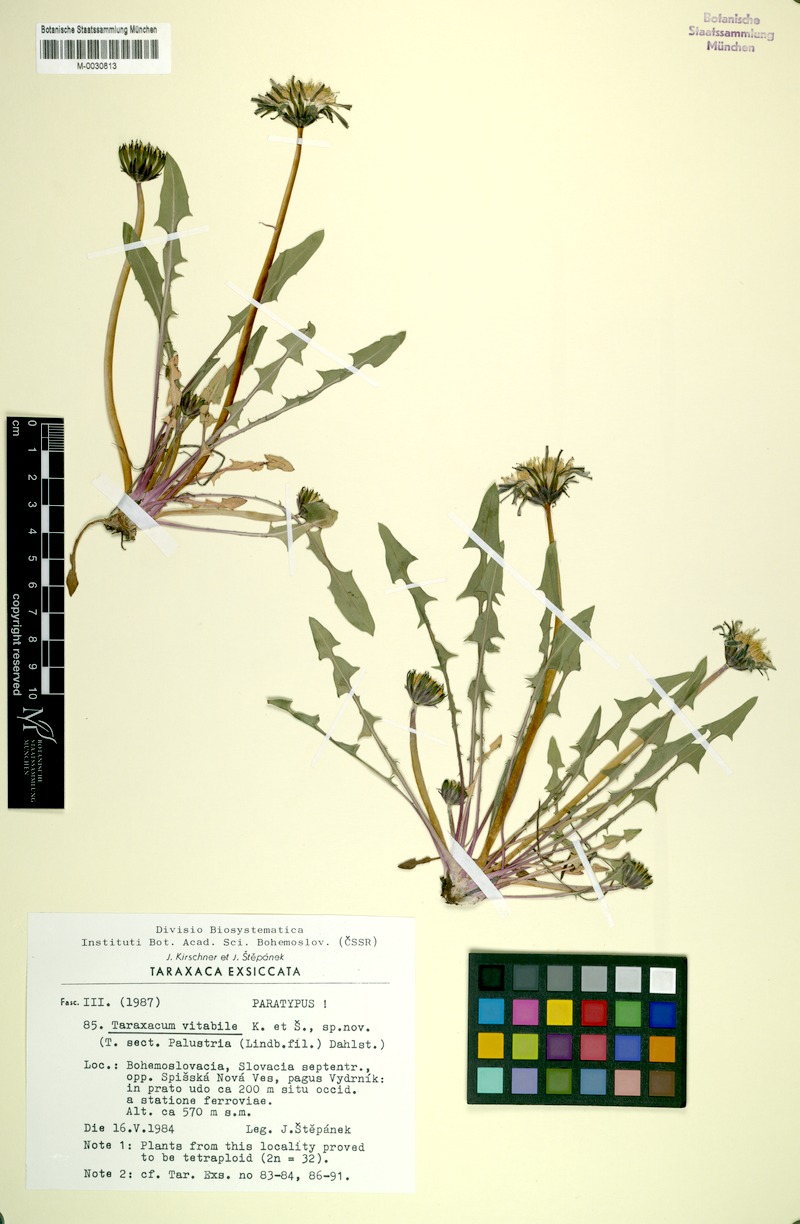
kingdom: Plantae
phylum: Tracheophyta
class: Magnoliopsida
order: Asterales
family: Asteraceae
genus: Taraxacum
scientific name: Taraxacum vindobonense
